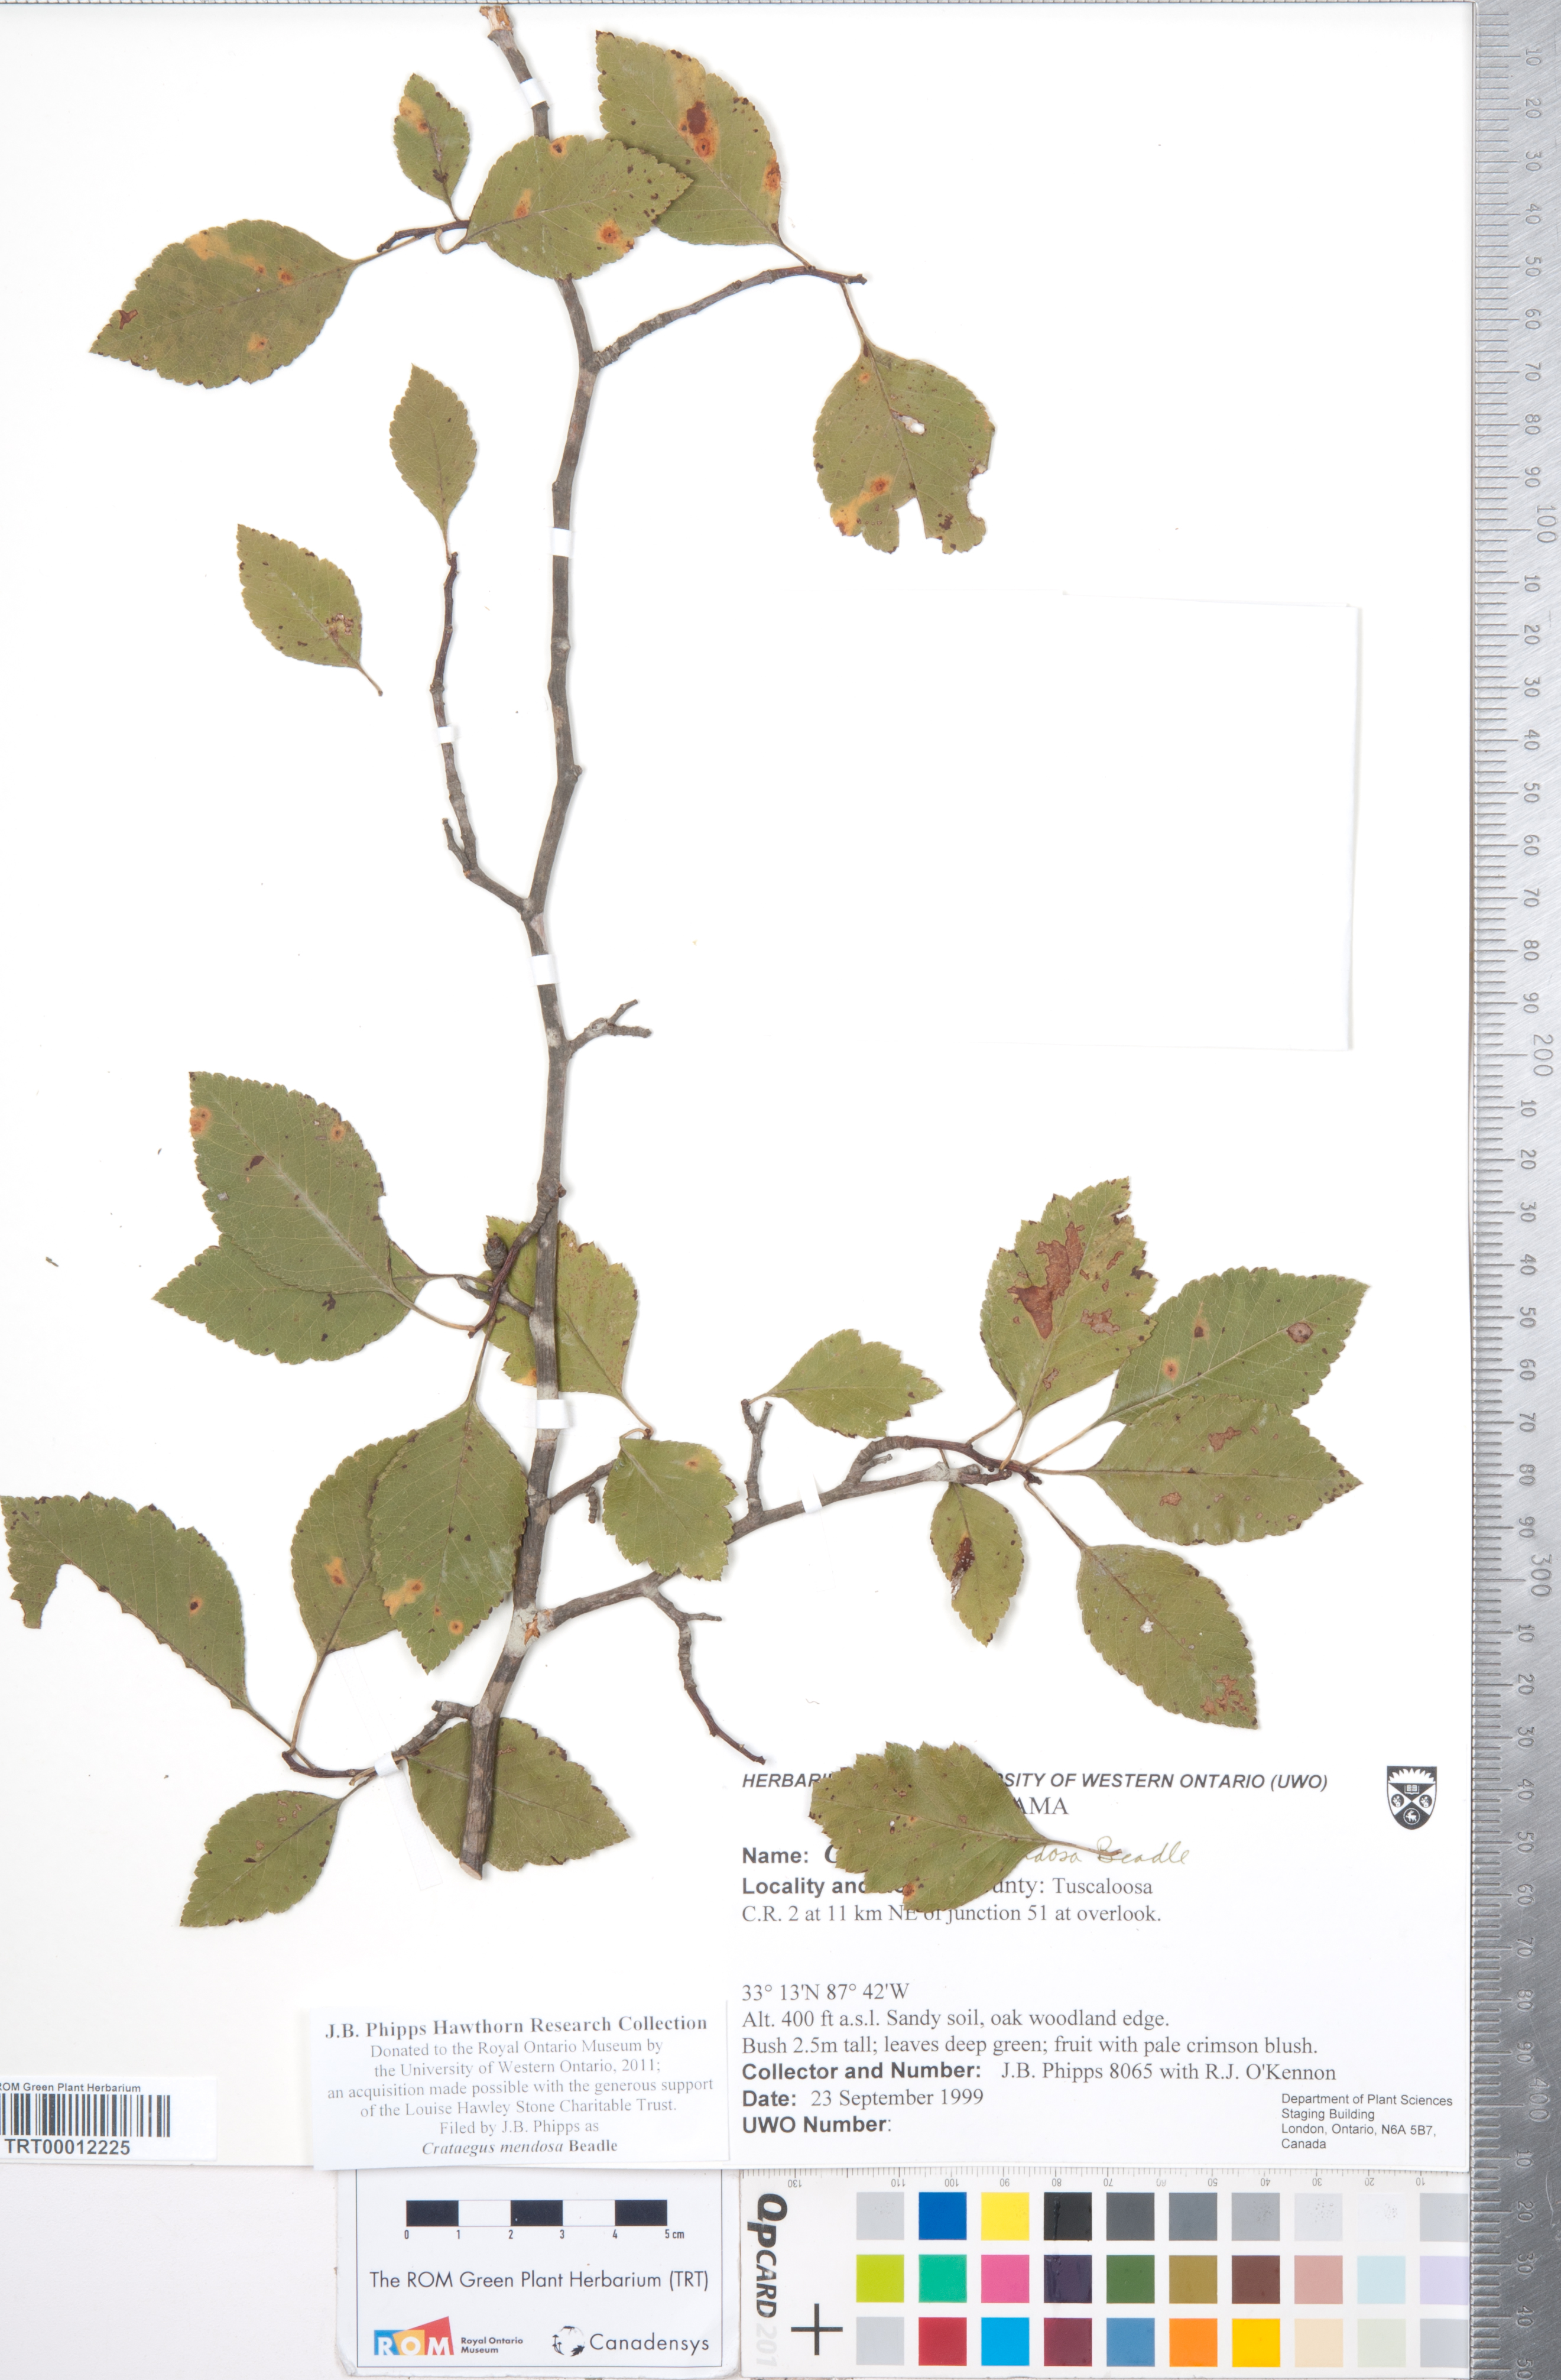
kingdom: Plantae
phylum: Tracheophyta
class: Magnoliopsida
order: Rosales
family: Rosaceae
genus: Crataegus
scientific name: Crataegus pulcherrima
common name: Beautiful hawthorn
